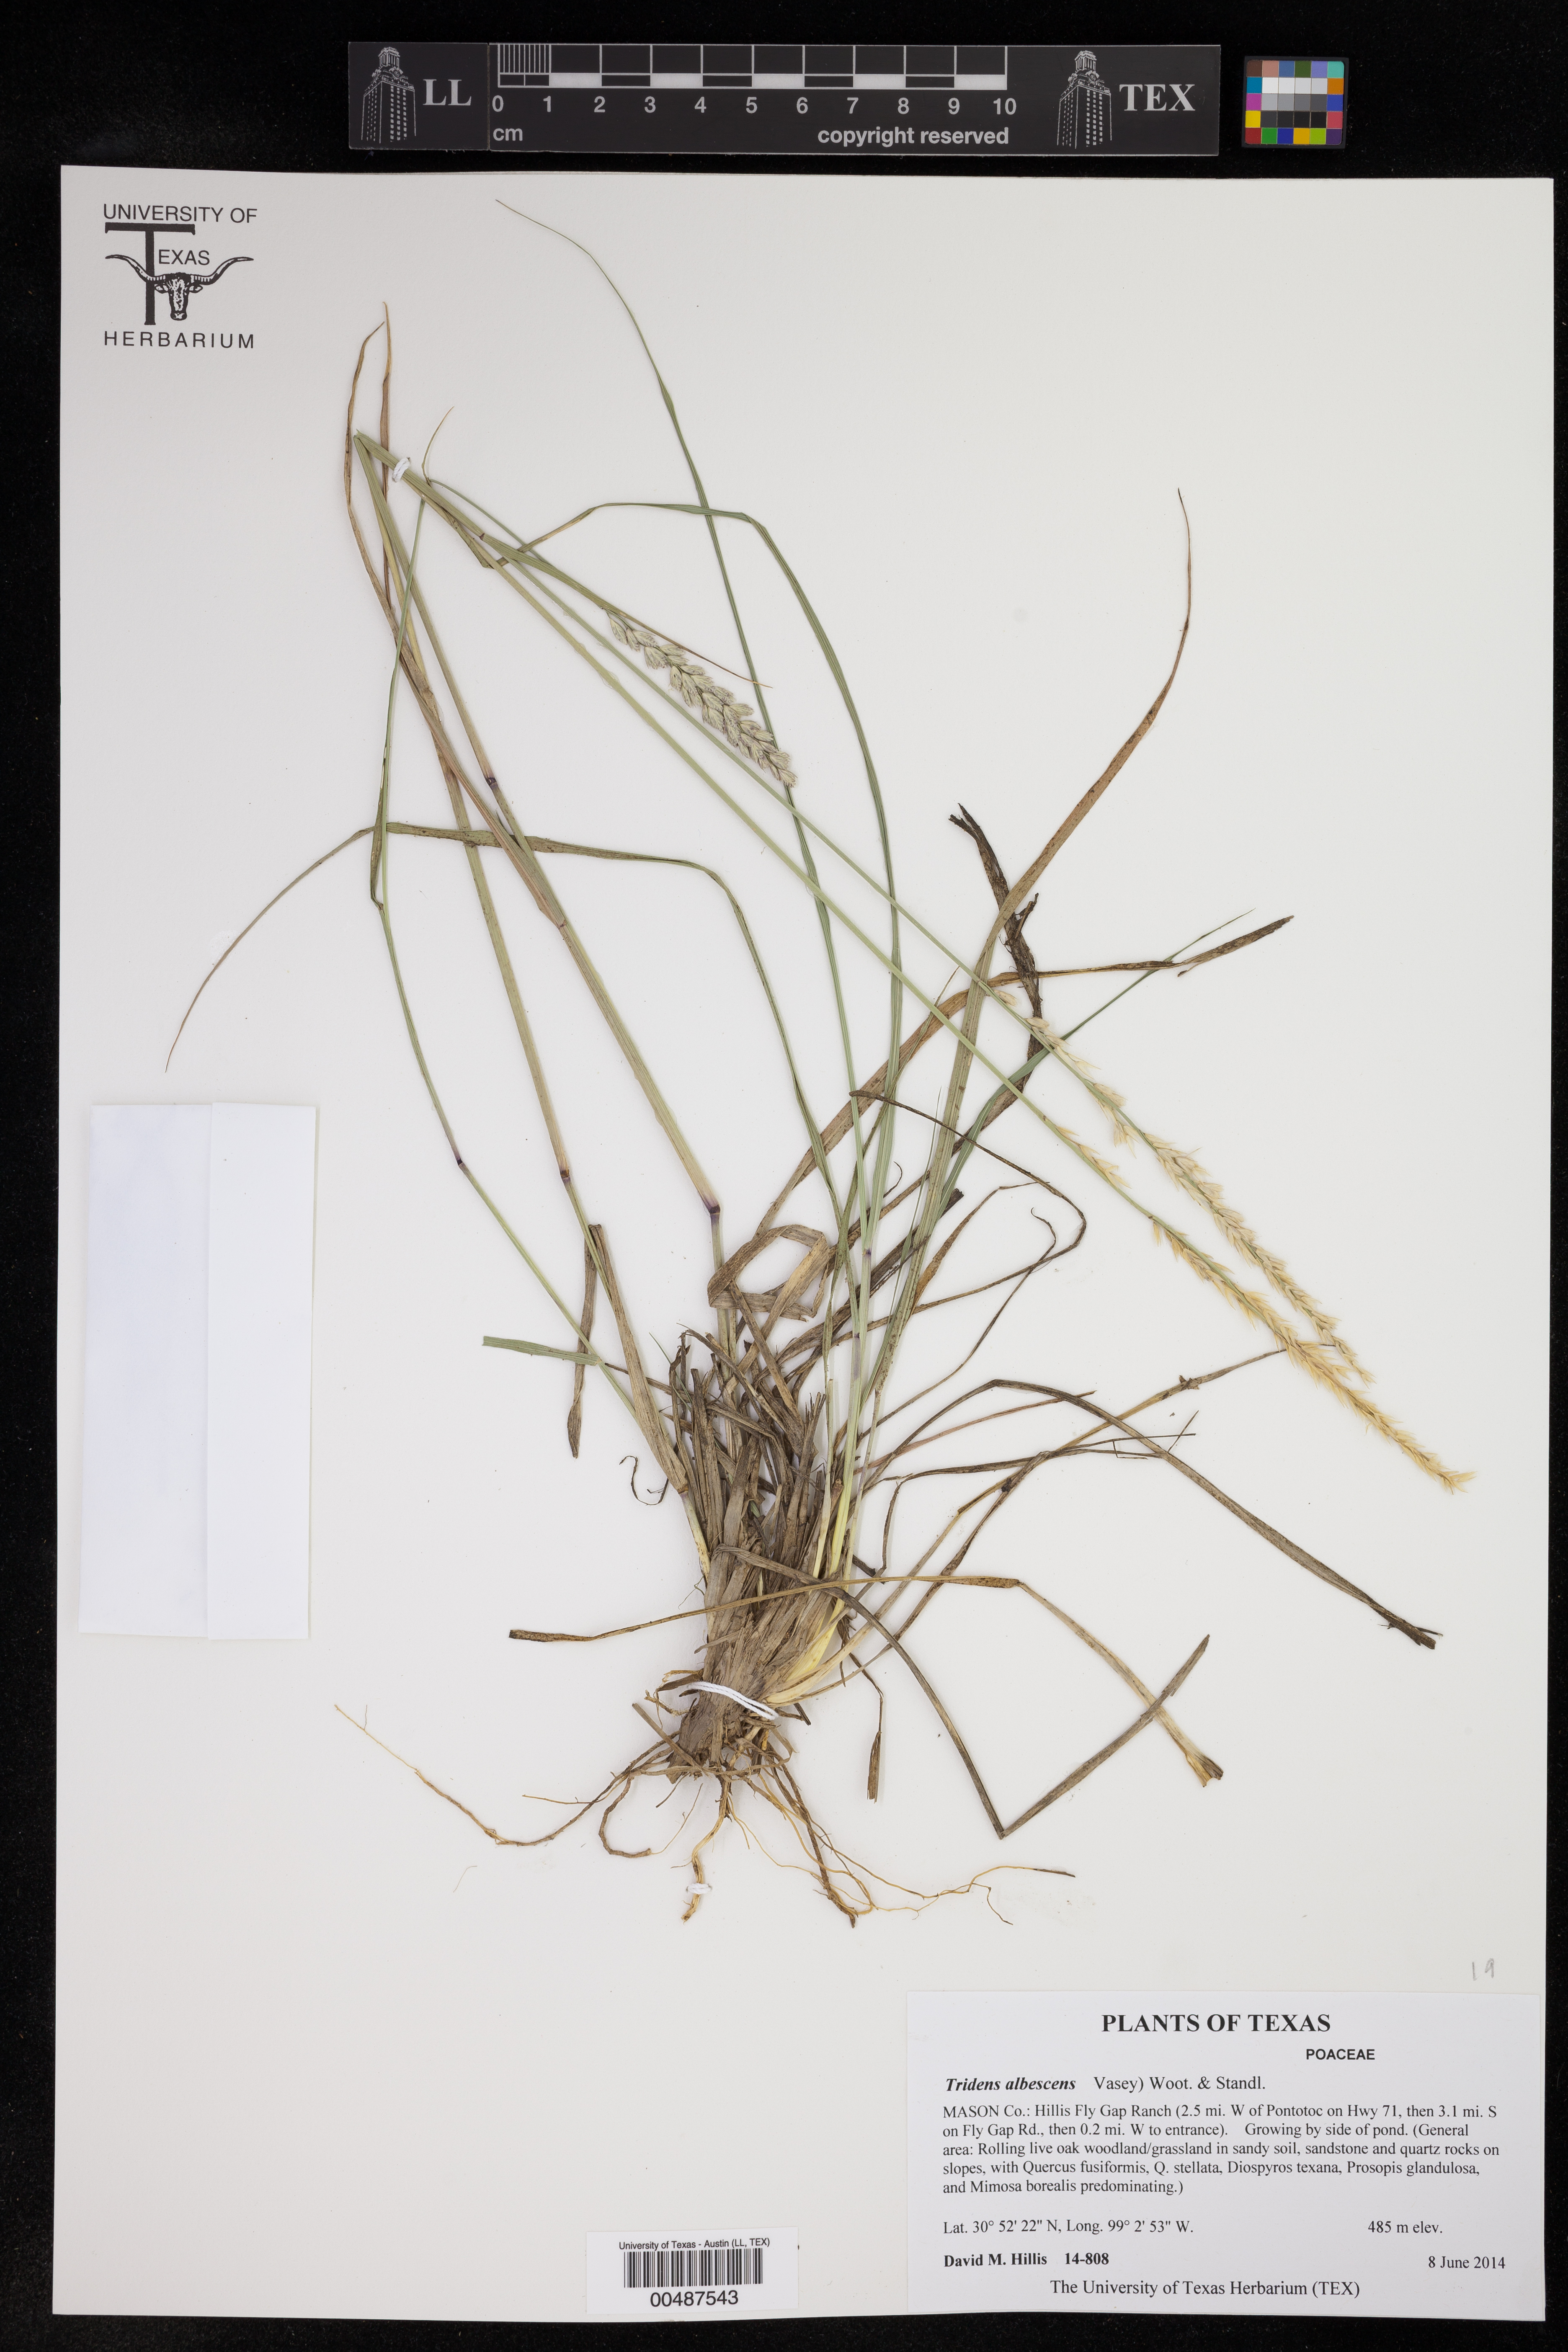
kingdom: Plantae
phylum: Tracheophyta
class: Liliopsida
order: Poales
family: Poaceae
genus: Tridens
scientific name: Tridens albescens
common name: White tridens
